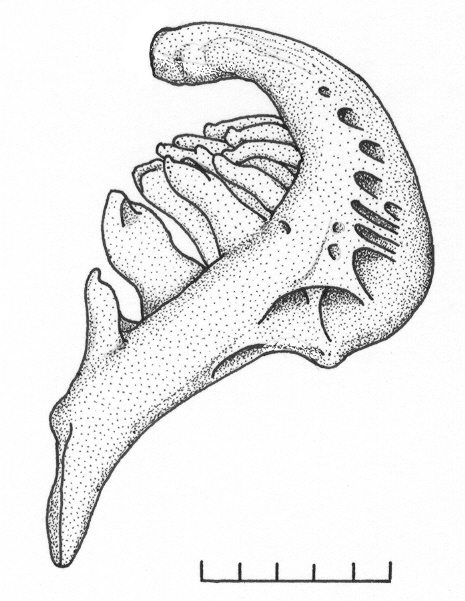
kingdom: Animalia
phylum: Chordata
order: Cypriniformes
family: Cyprinidae
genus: Labeobarbus
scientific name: Labeobarbus nthuwa
